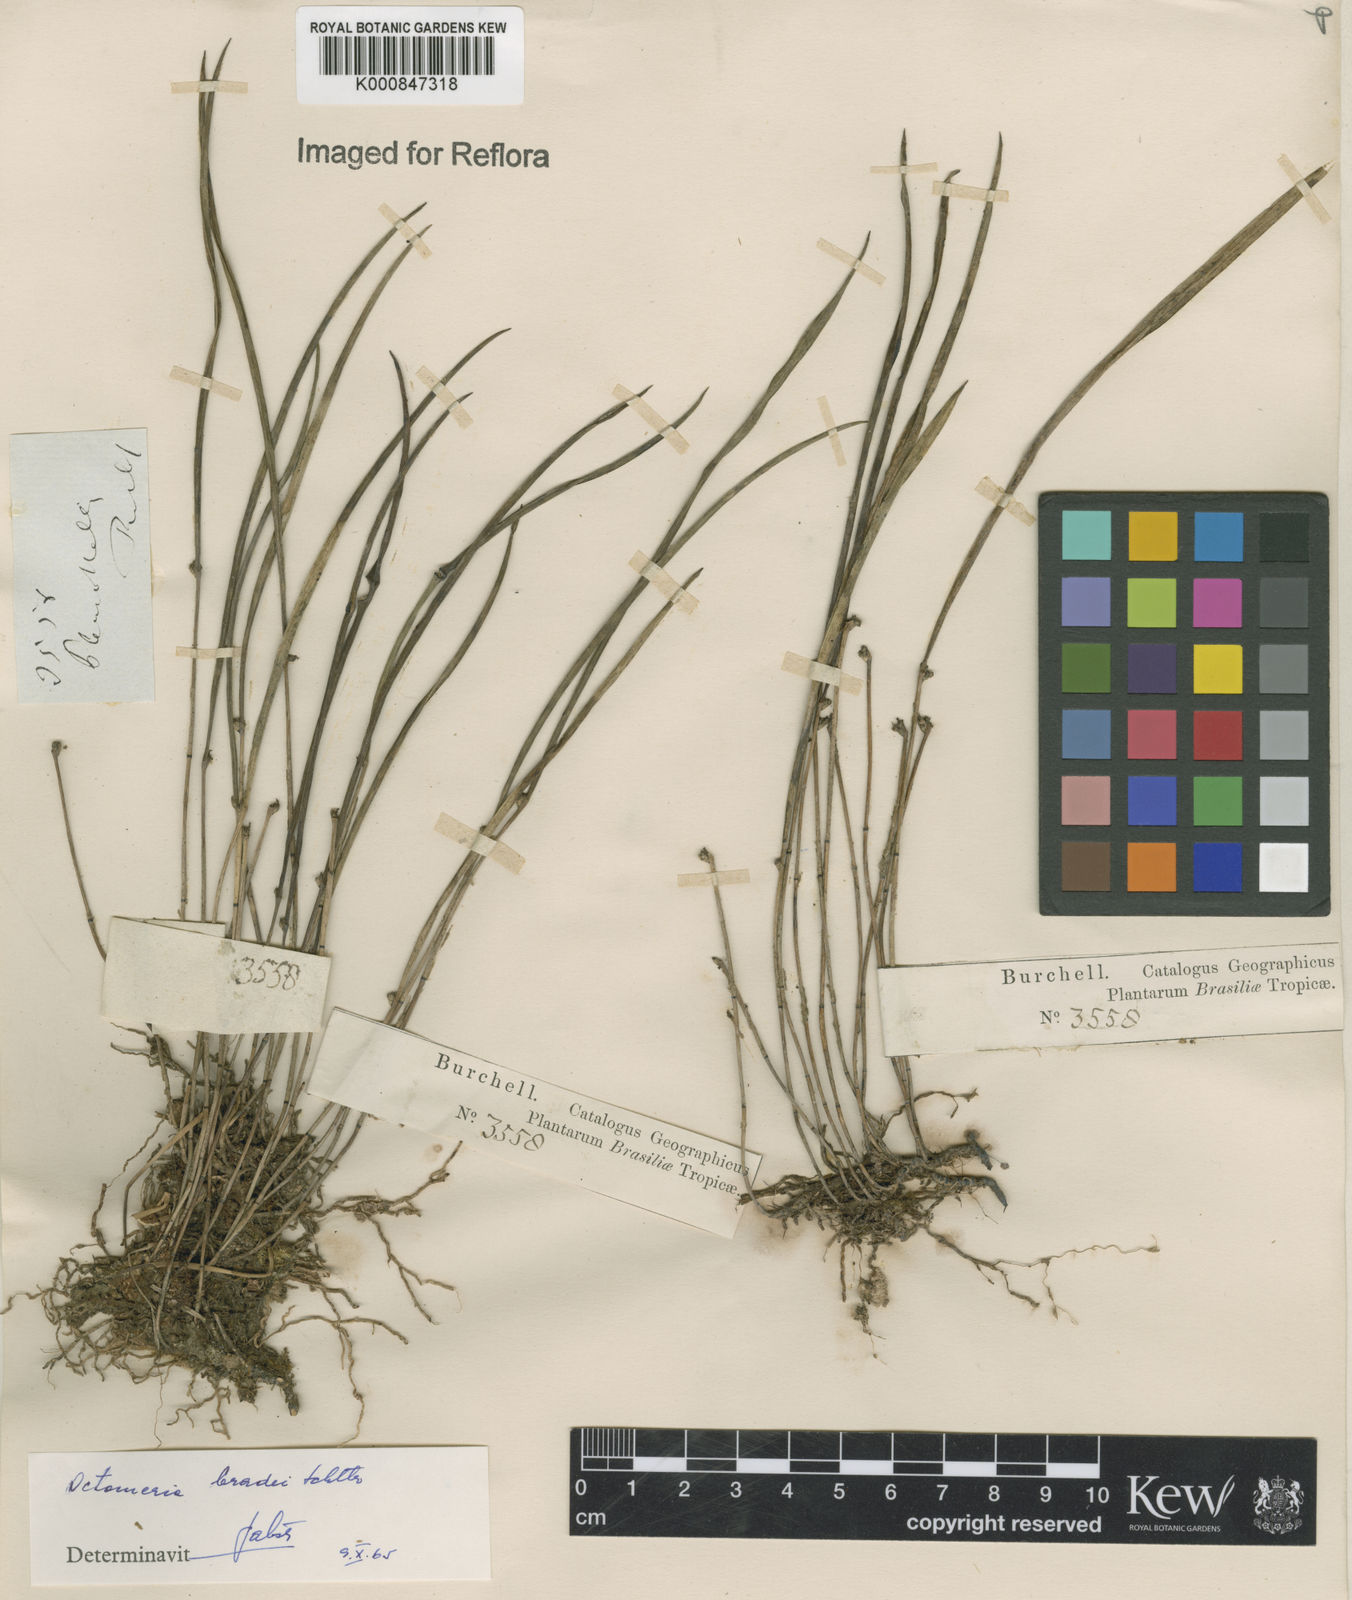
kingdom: Plantae
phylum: Tracheophyta
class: Liliopsida
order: Asparagales
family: Orchidaceae
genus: Octomeria
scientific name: Octomeria bradei
